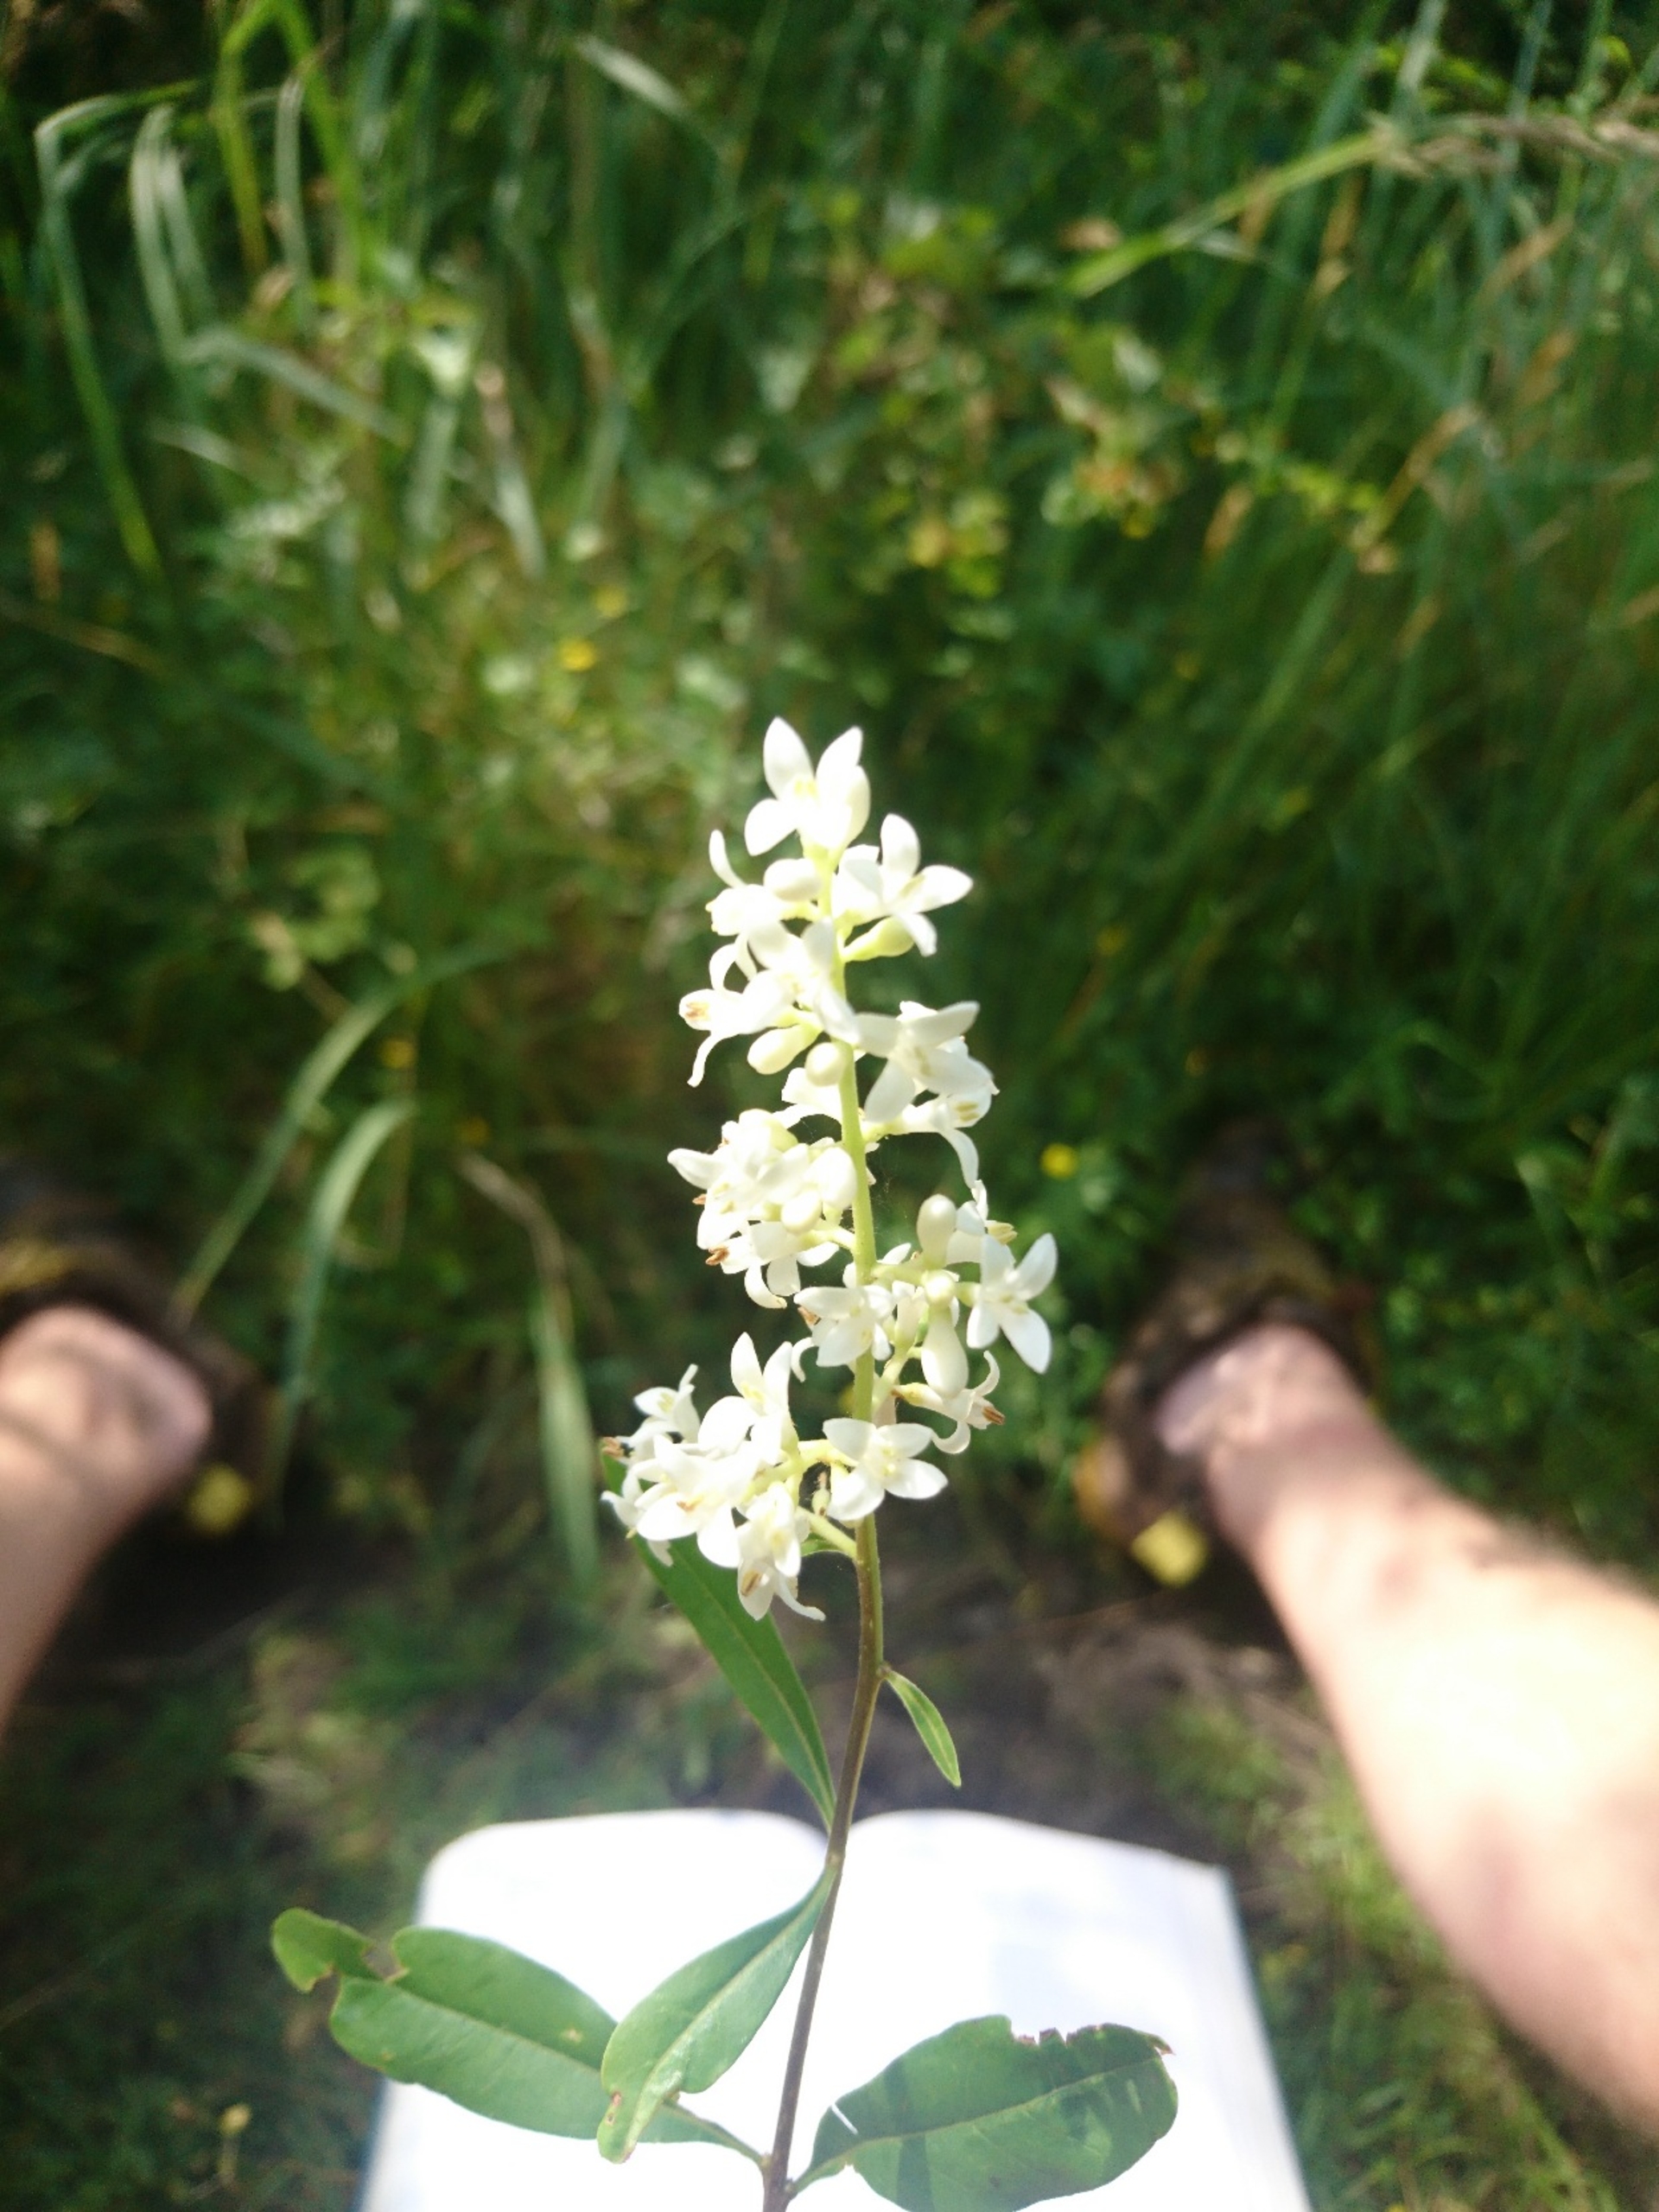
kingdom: Plantae
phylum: Tracheophyta
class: Magnoliopsida
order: Lamiales
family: Oleaceae
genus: Ligustrum
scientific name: Ligustrum vulgare
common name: Liguster
